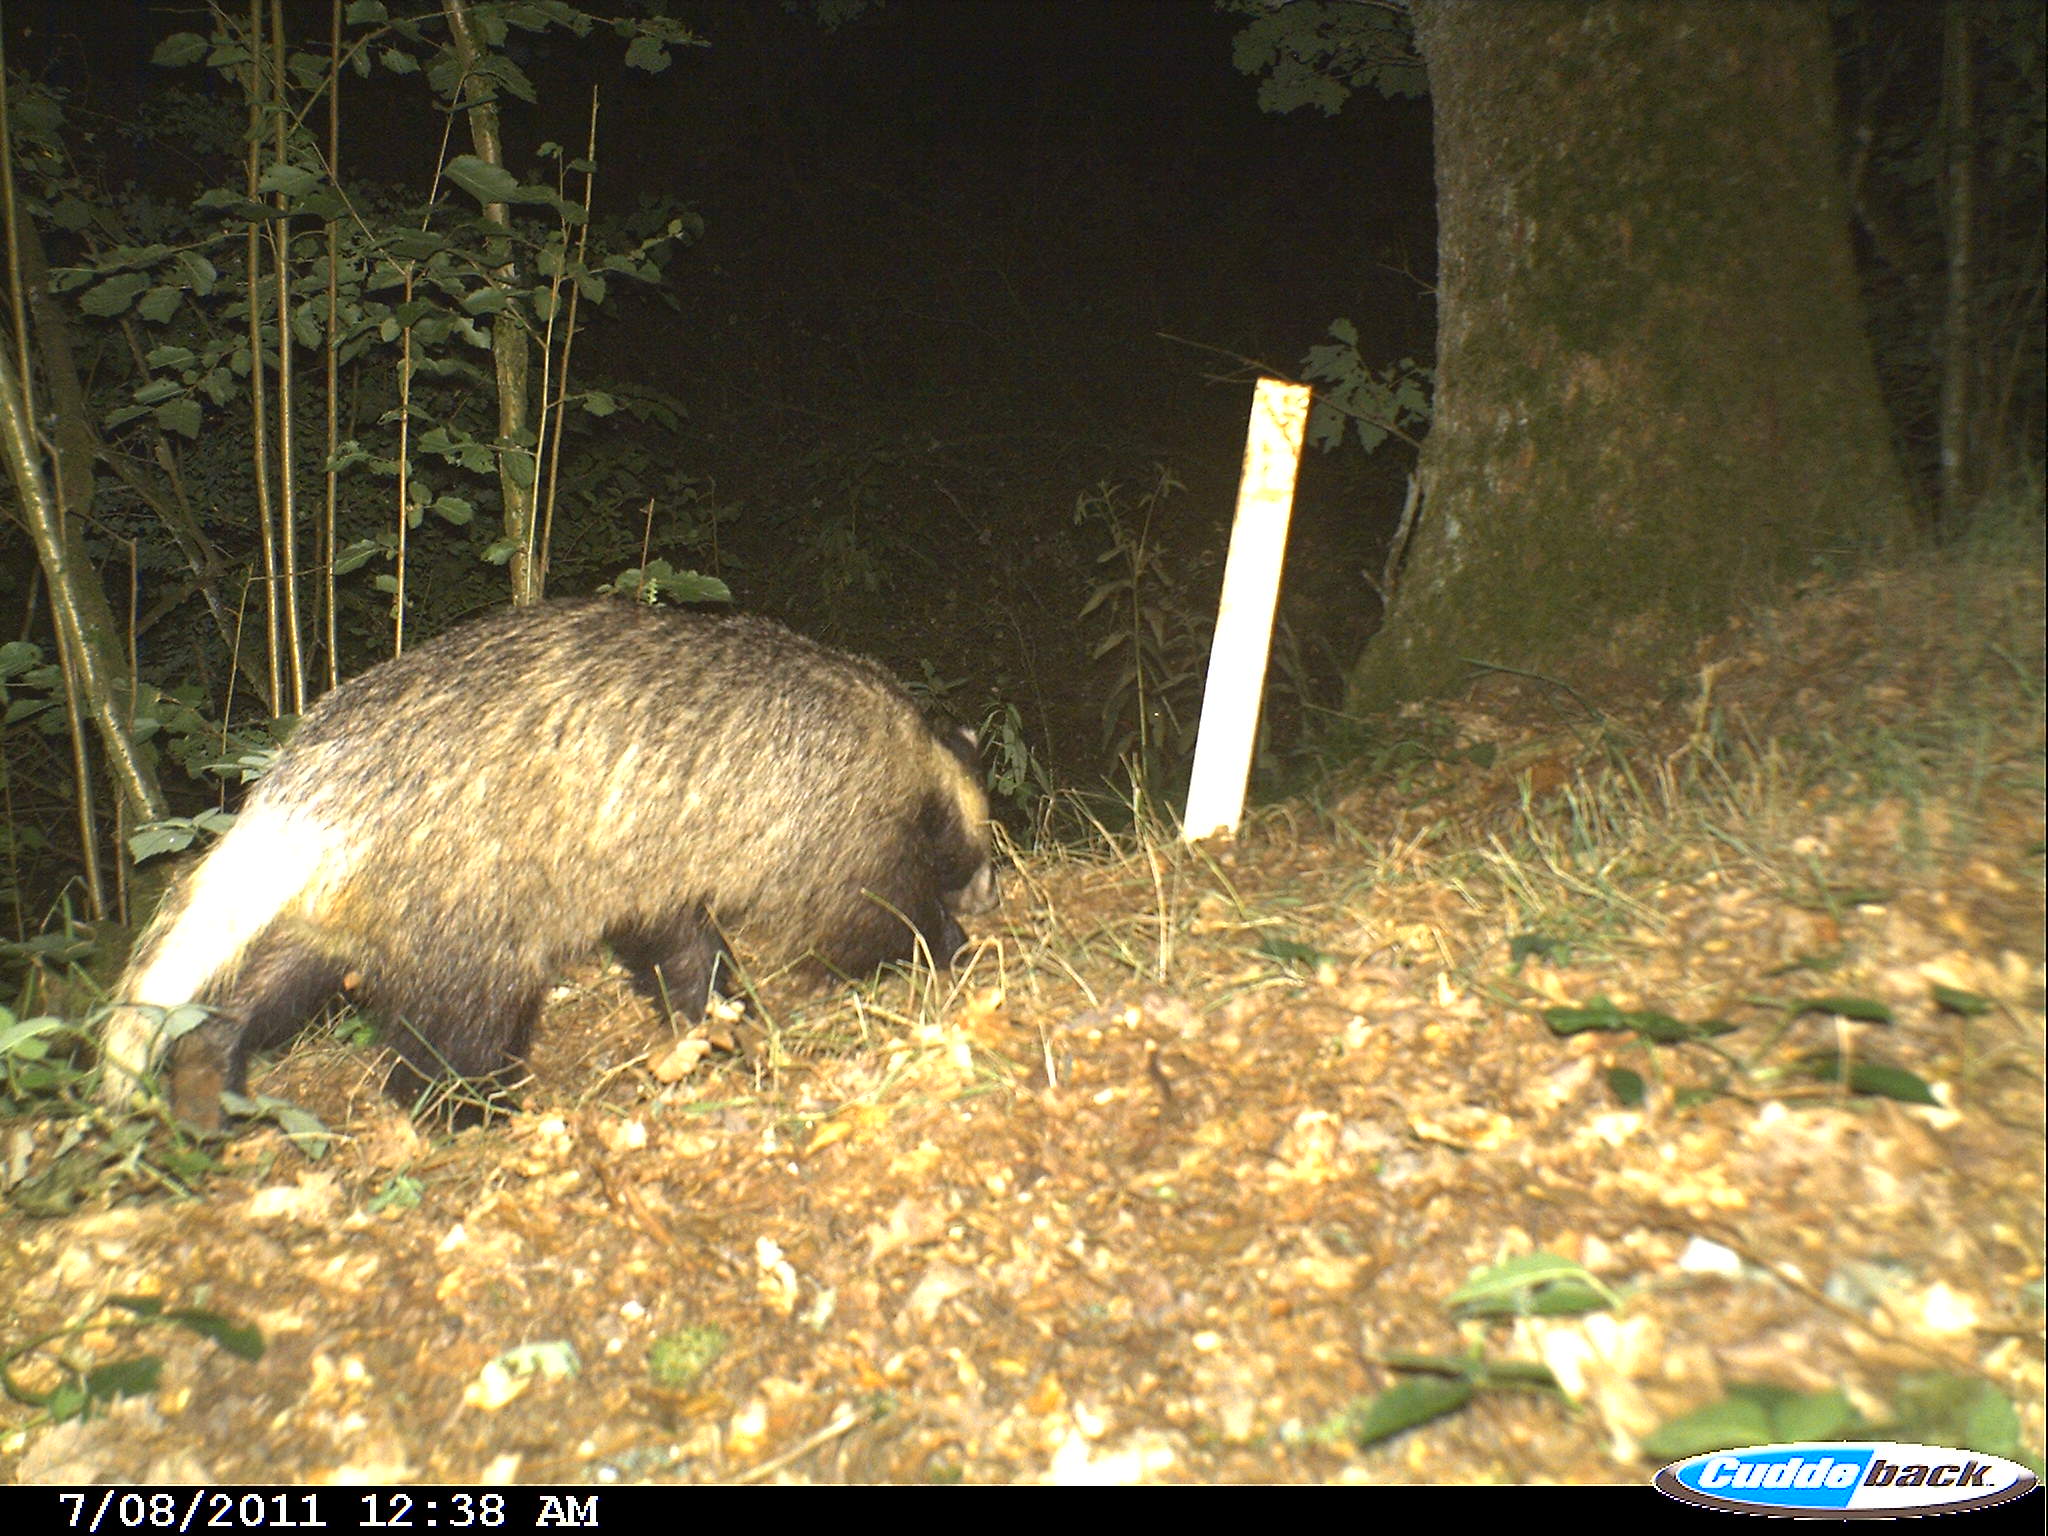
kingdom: Animalia
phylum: Chordata
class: Mammalia
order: Carnivora
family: Mustelidae
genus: Meles
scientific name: Meles meles
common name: Eurasian badger
